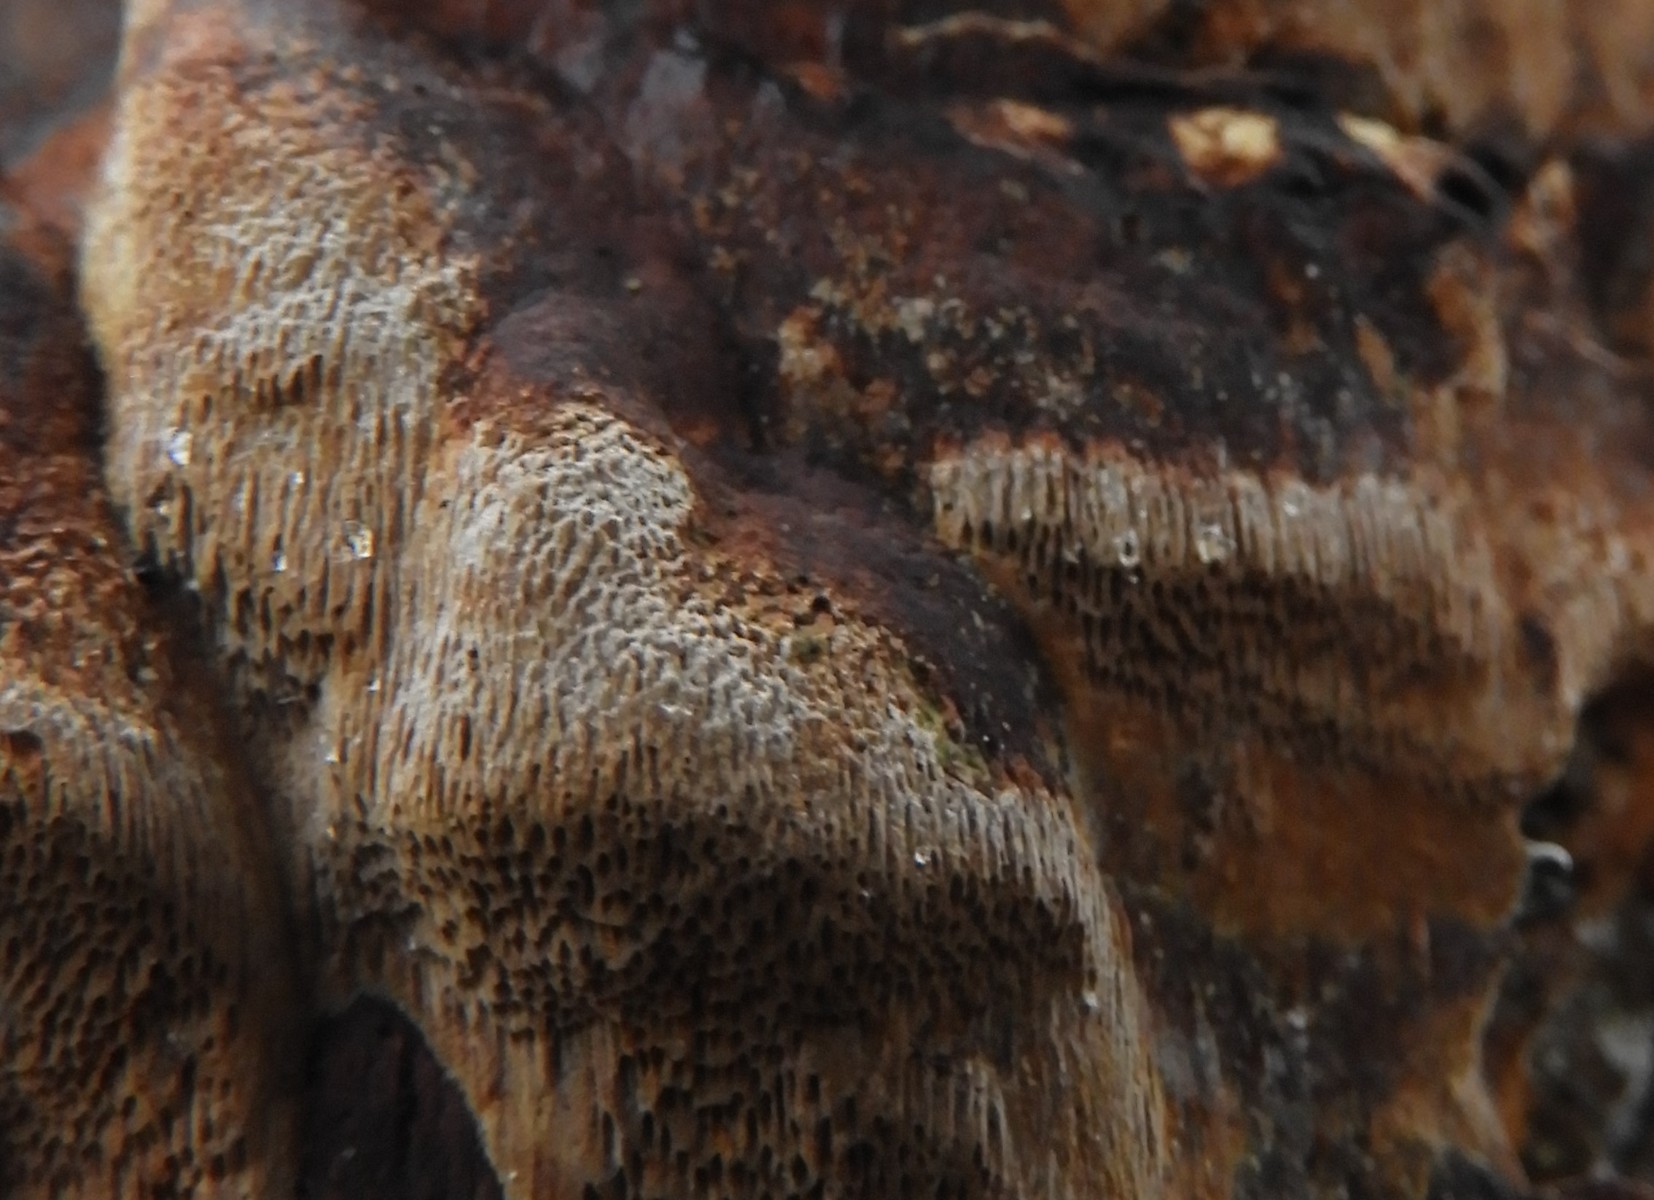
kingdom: Fungi
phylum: Basidiomycota
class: Agaricomycetes
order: Hymenochaetales
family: Hymenochaetaceae
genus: Mensularia
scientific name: Mensularia nodulosa
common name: bøge-spejlporesvamp
